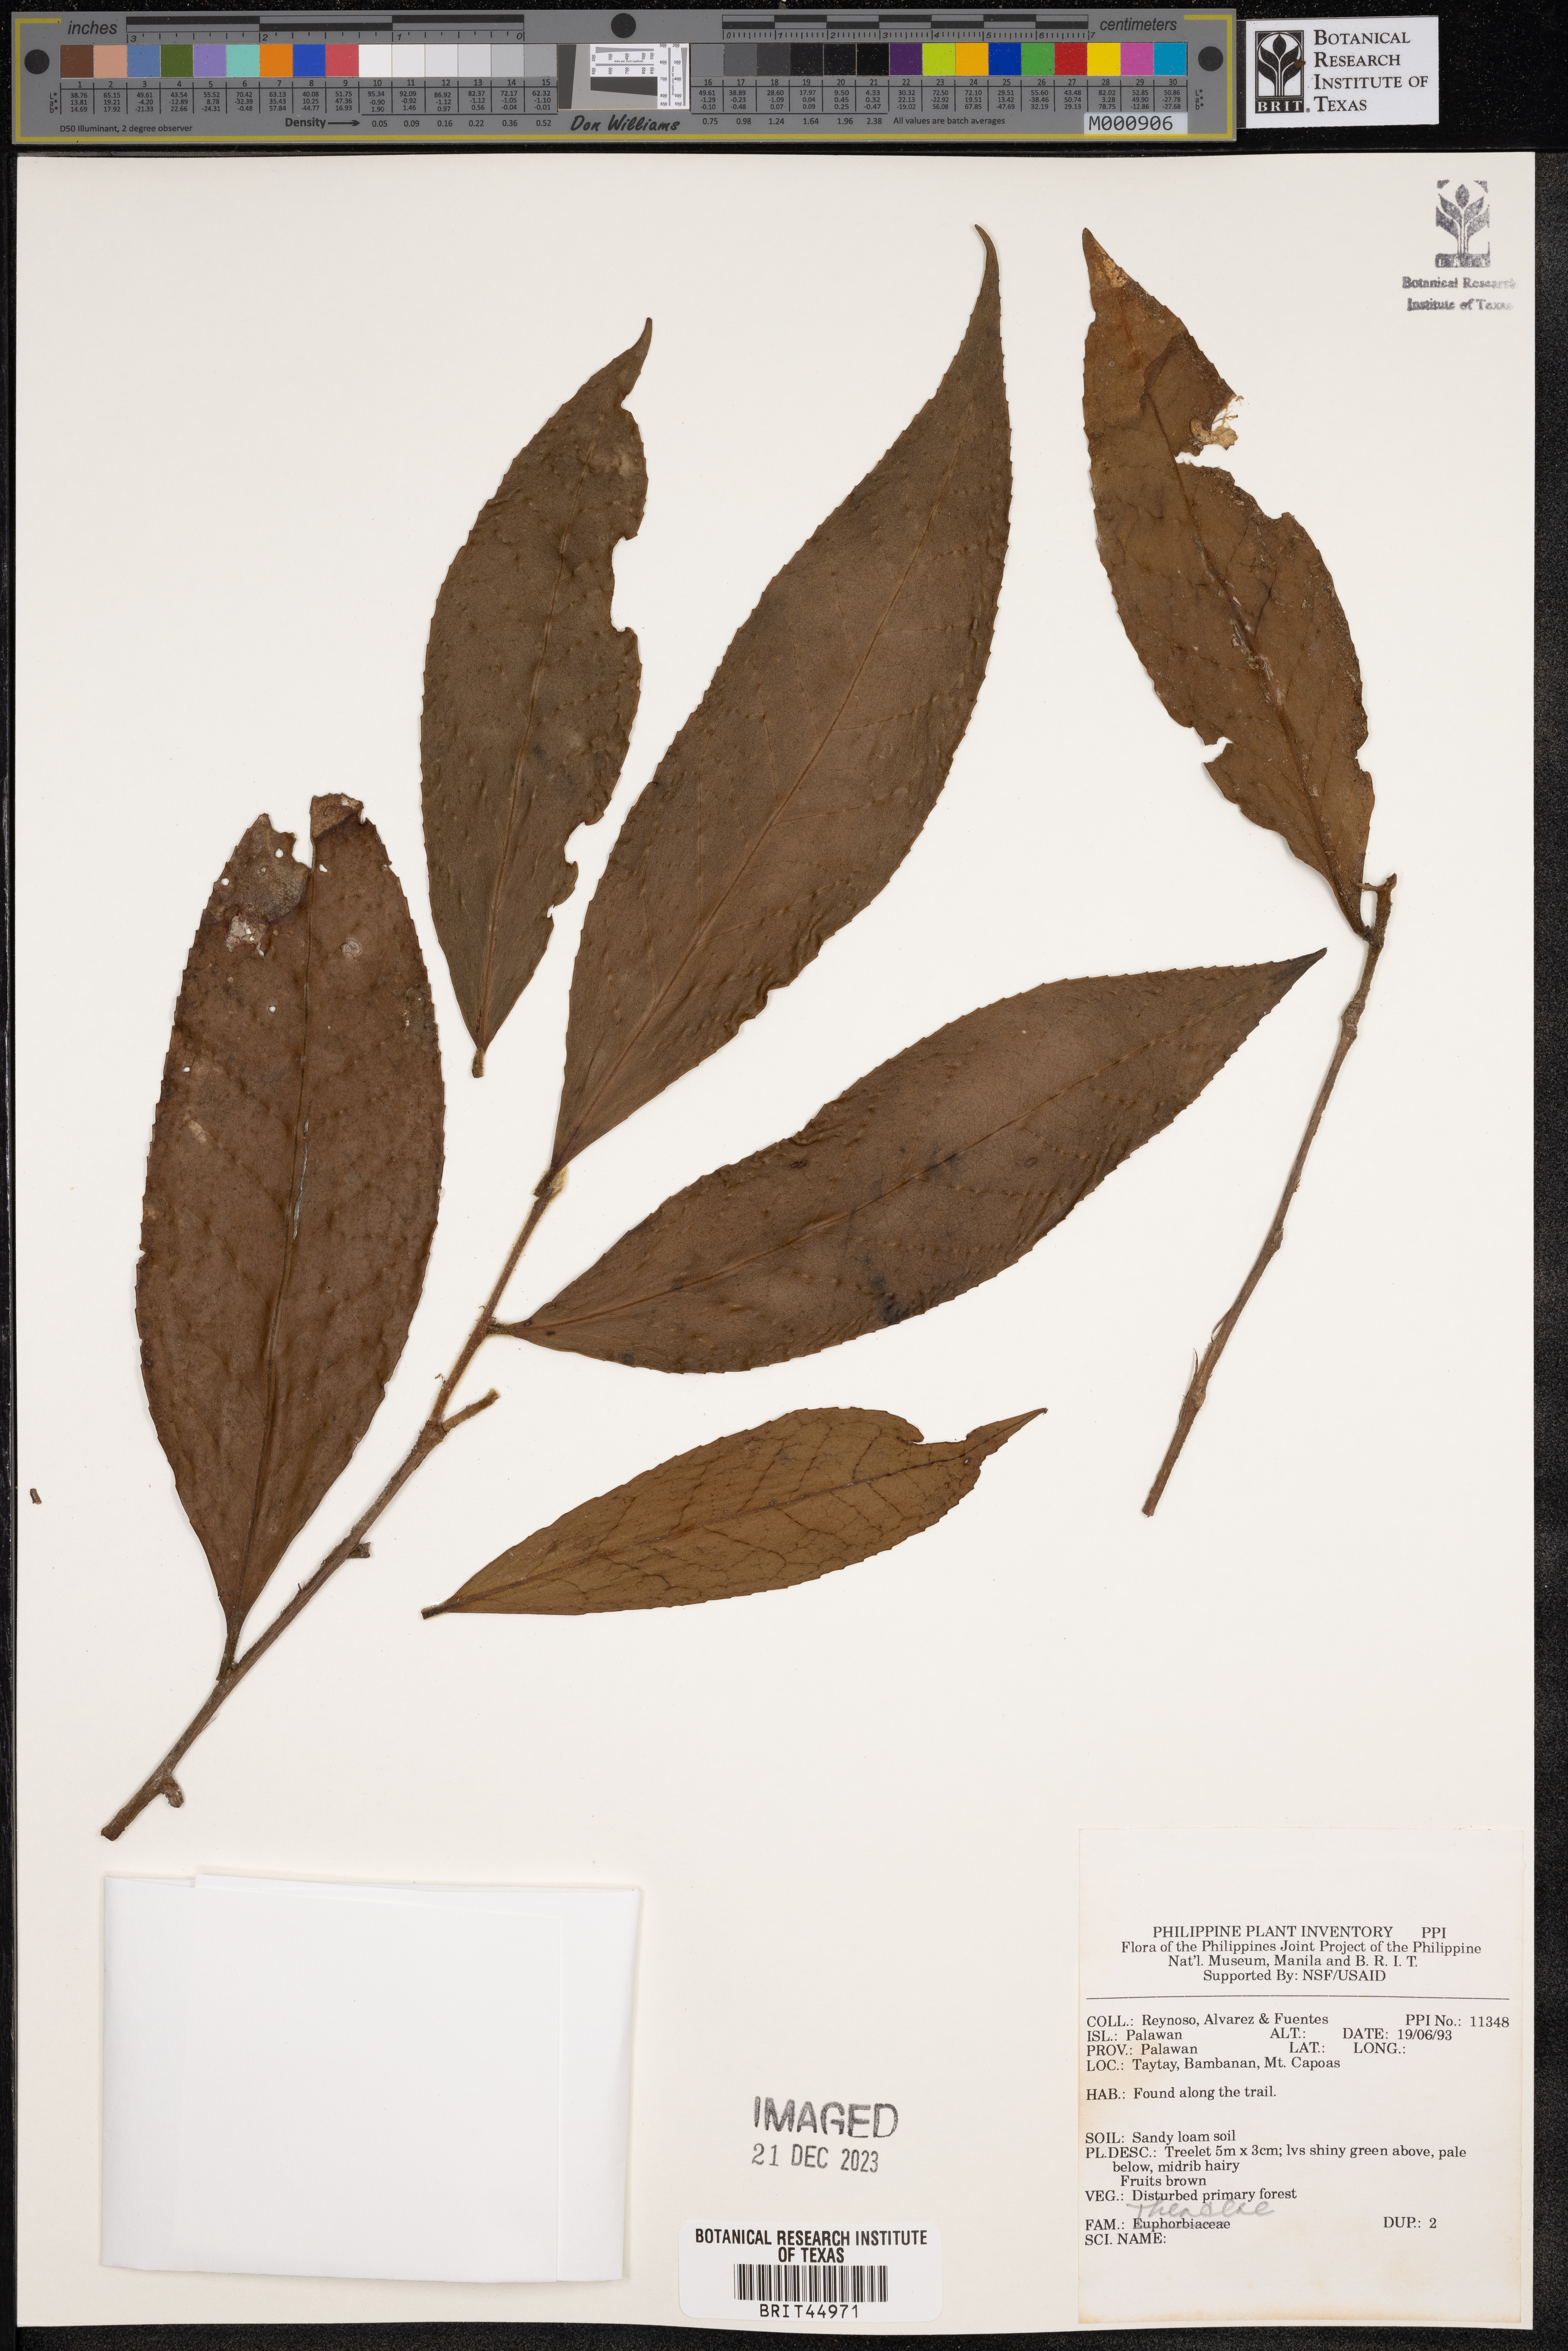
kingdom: Plantae
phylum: Tracheophyta
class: Magnoliopsida
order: Ericales
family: Theaceae
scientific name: Theaceae
